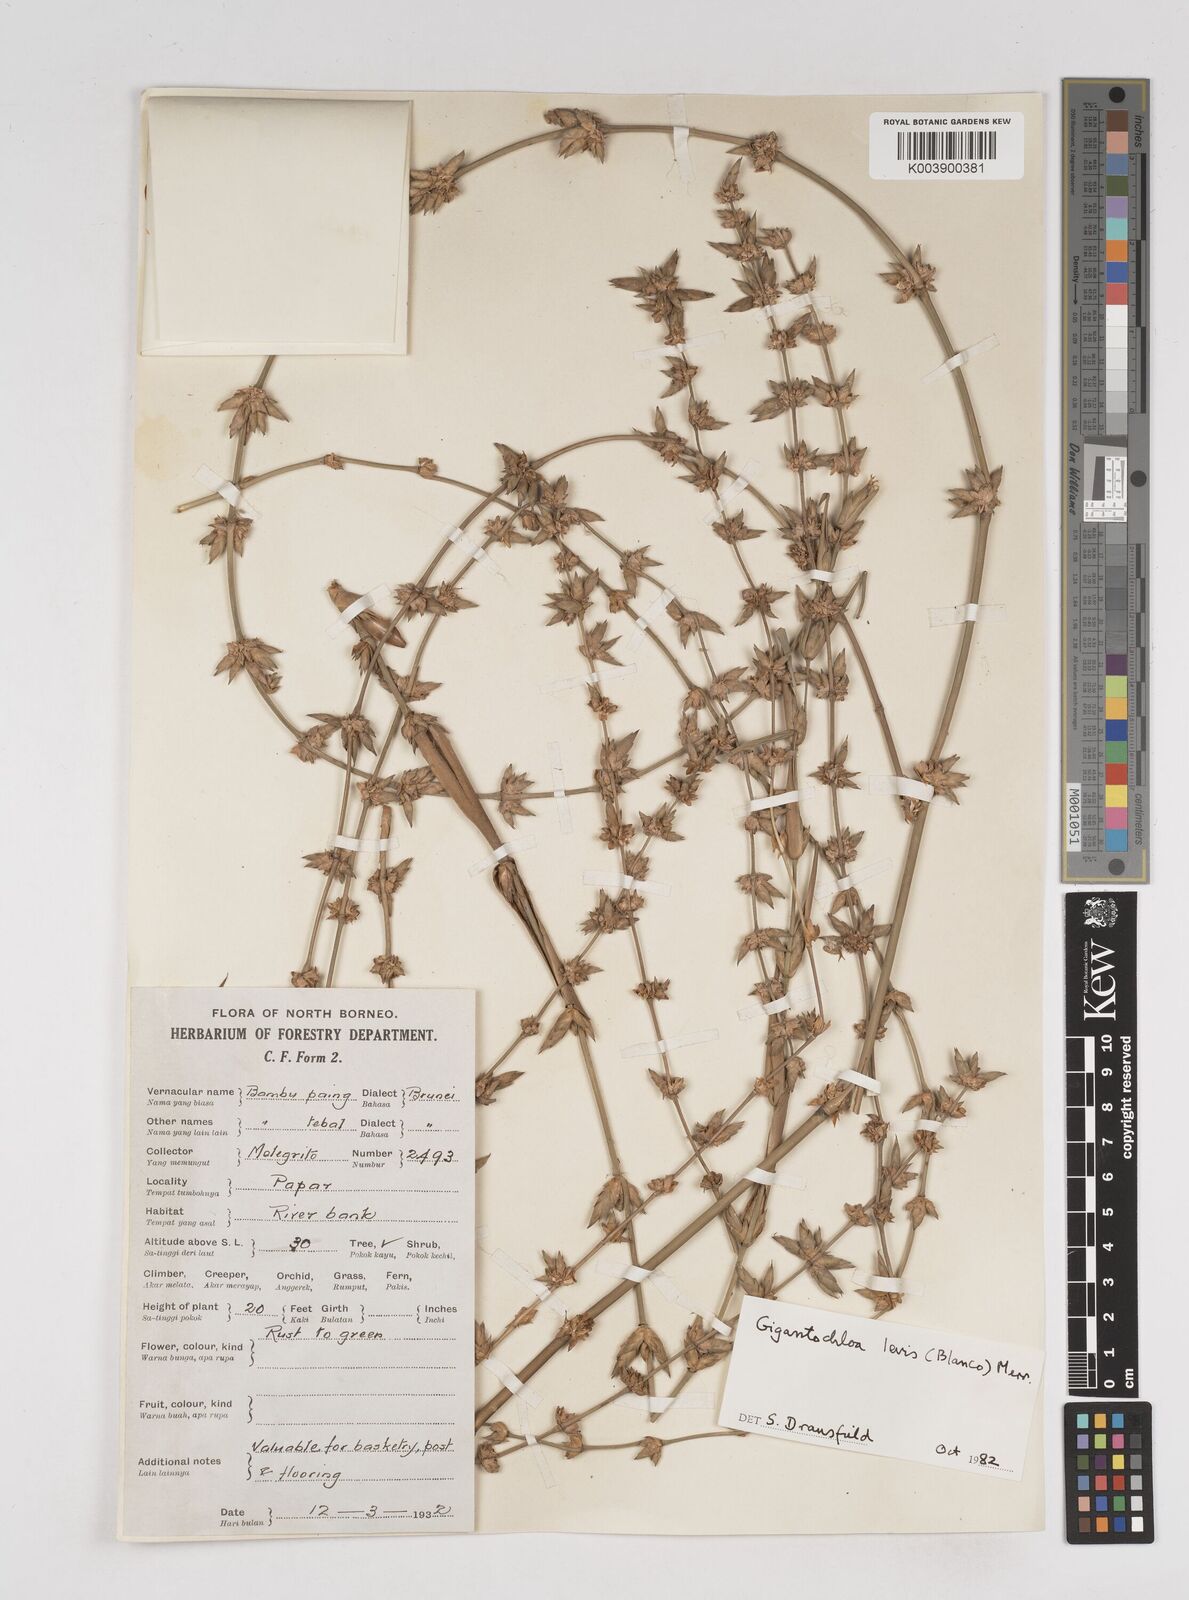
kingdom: Plantae
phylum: Tracheophyta
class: Liliopsida
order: Poales
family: Poaceae
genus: Gigantochloa
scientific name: Gigantochloa levis
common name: Smooth-shoot gigantochloa
